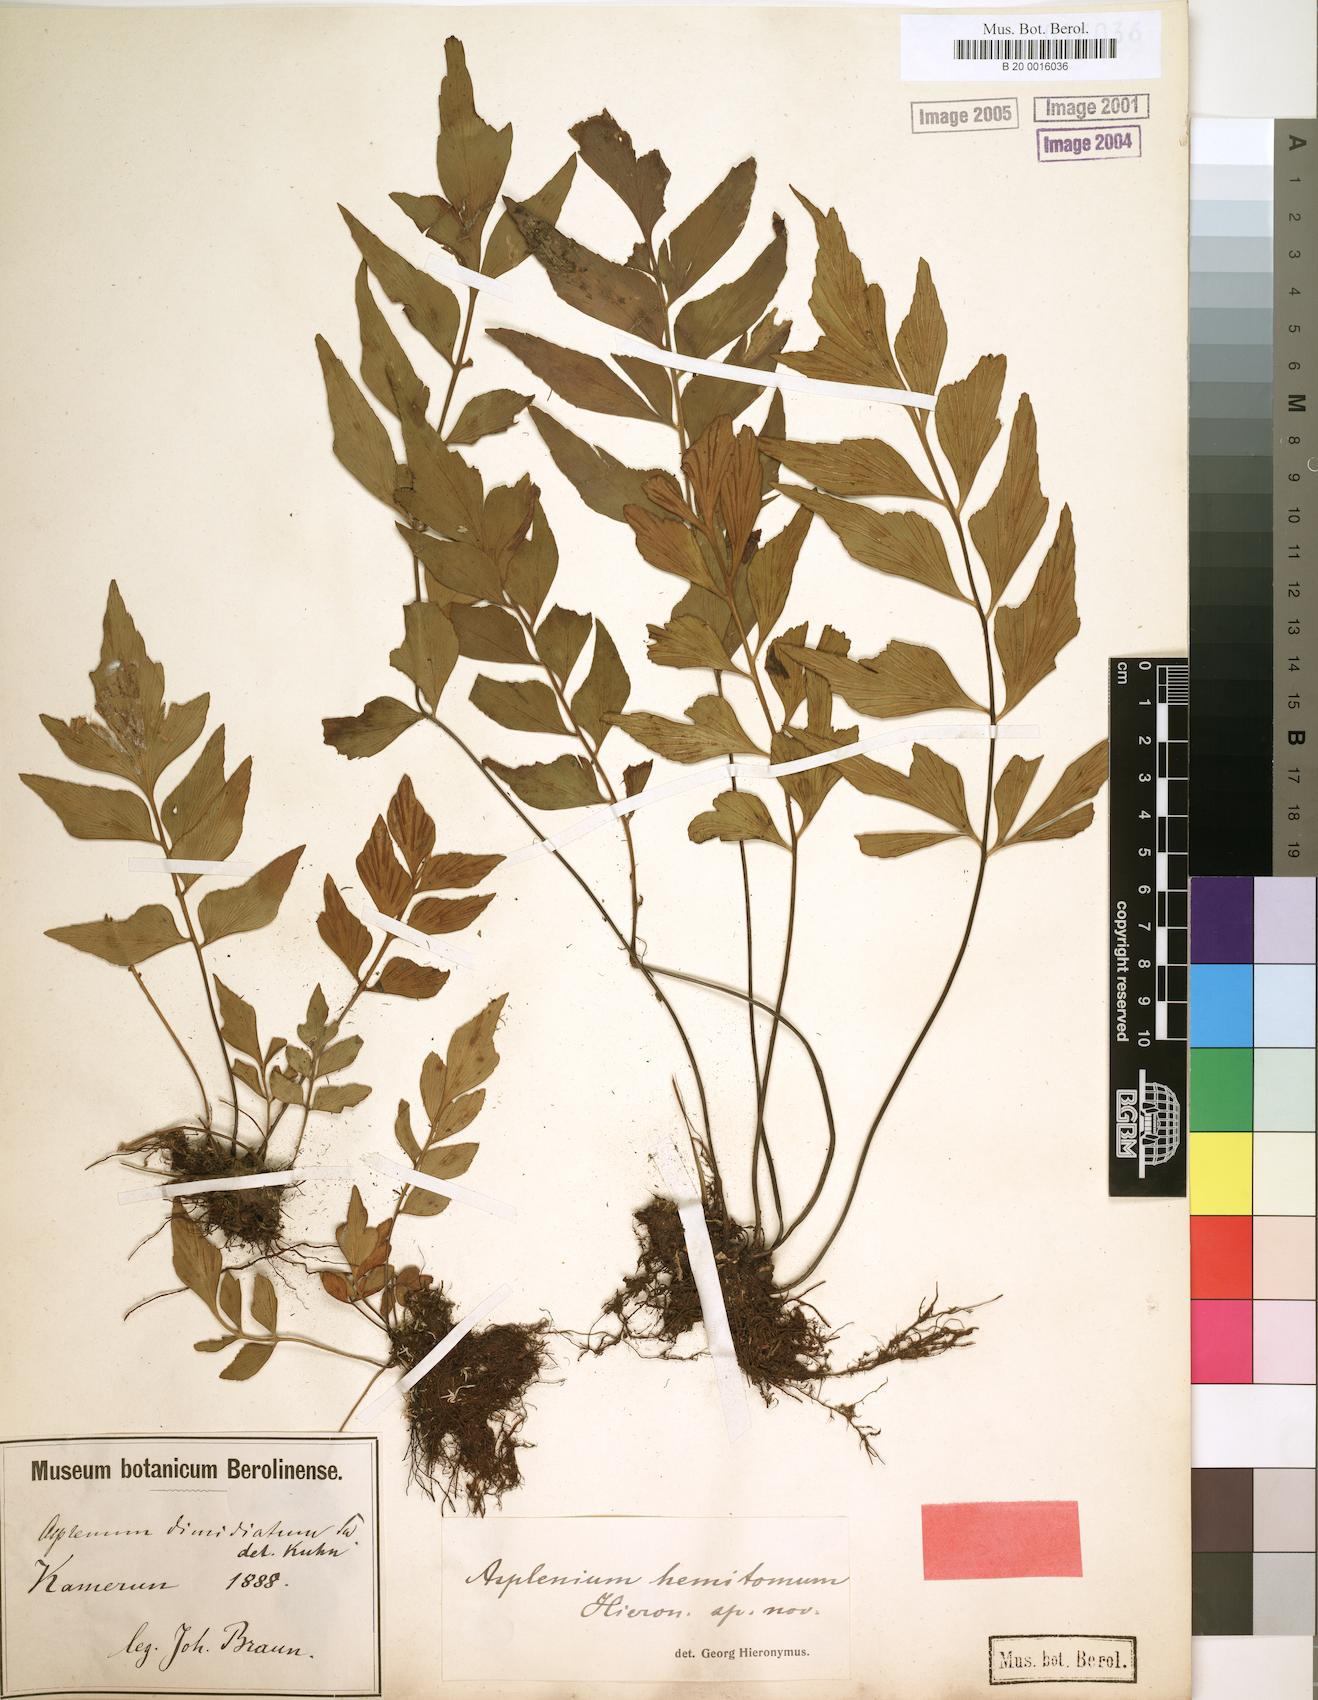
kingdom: Plantae
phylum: Tracheophyta
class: Polypodiopsida
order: Polypodiales
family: Aspleniaceae
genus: Asplenium
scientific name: Asplenium hemitomum
